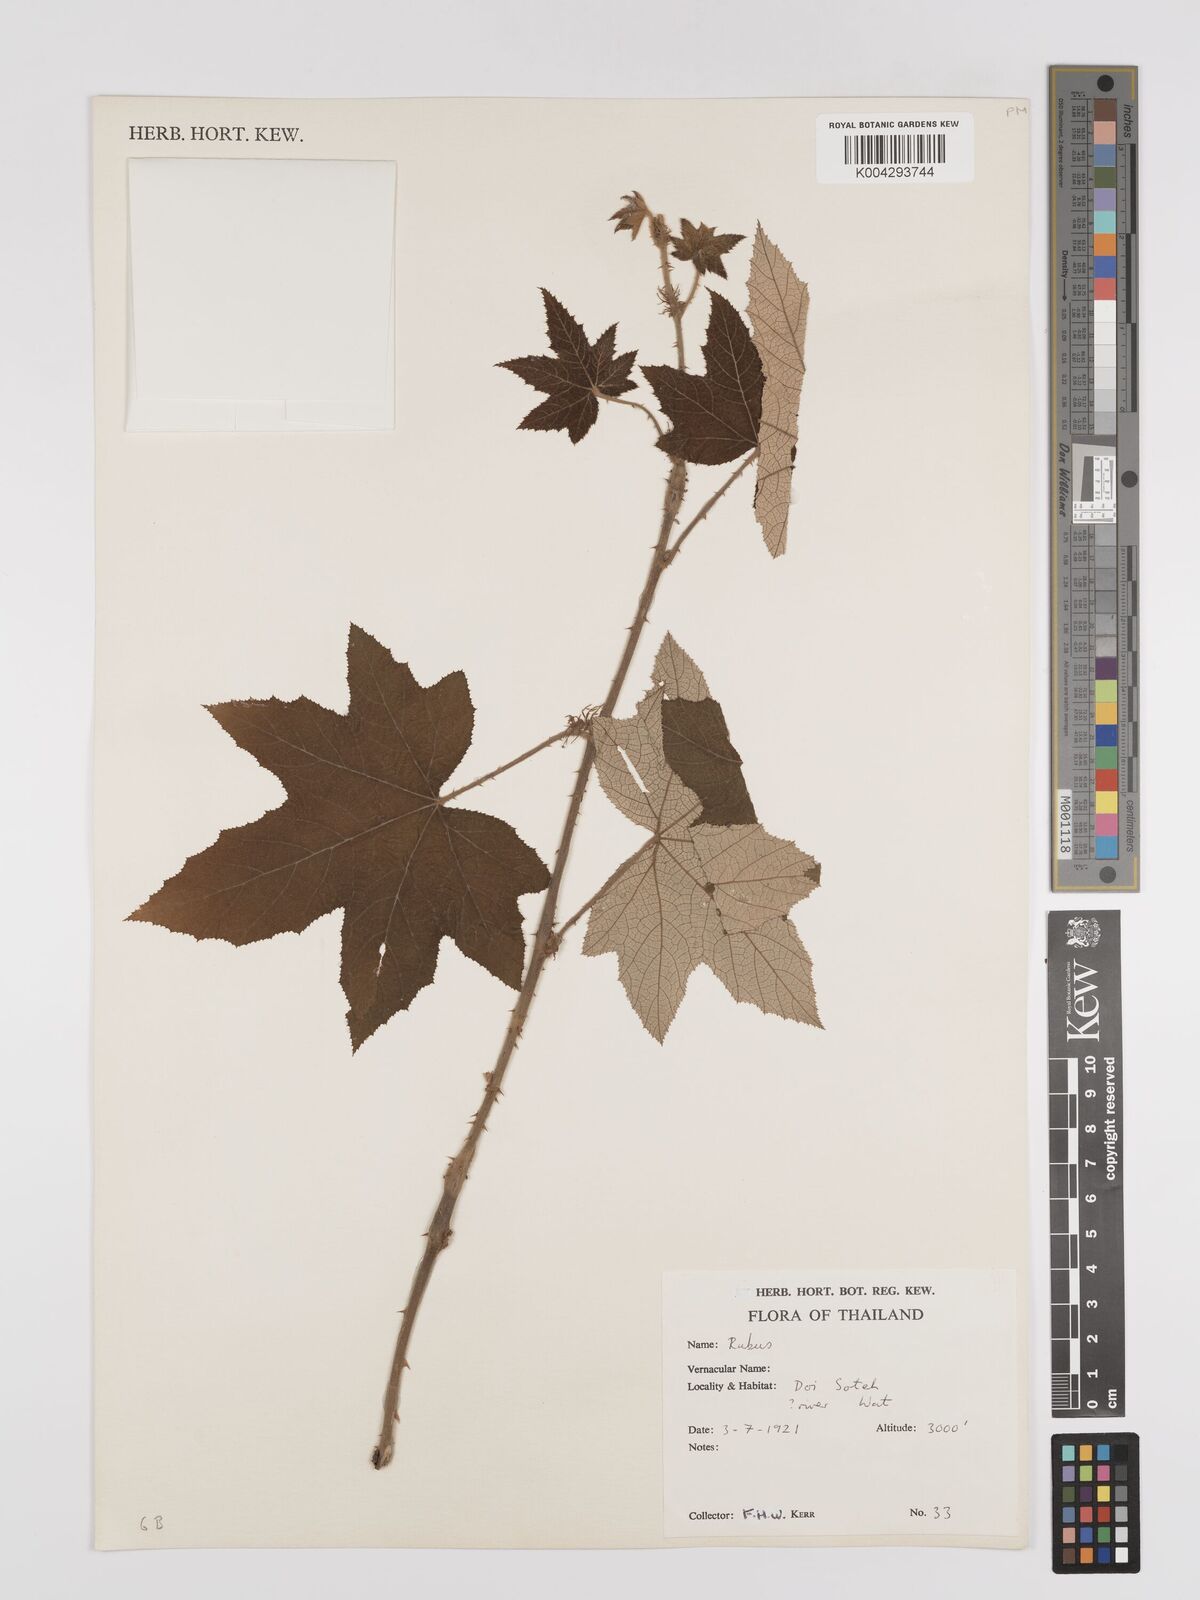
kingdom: Plantae
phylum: Tracheophyta
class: Magnoliopsida
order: Rosales
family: Rosaceae
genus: Rubus
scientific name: Rubus
